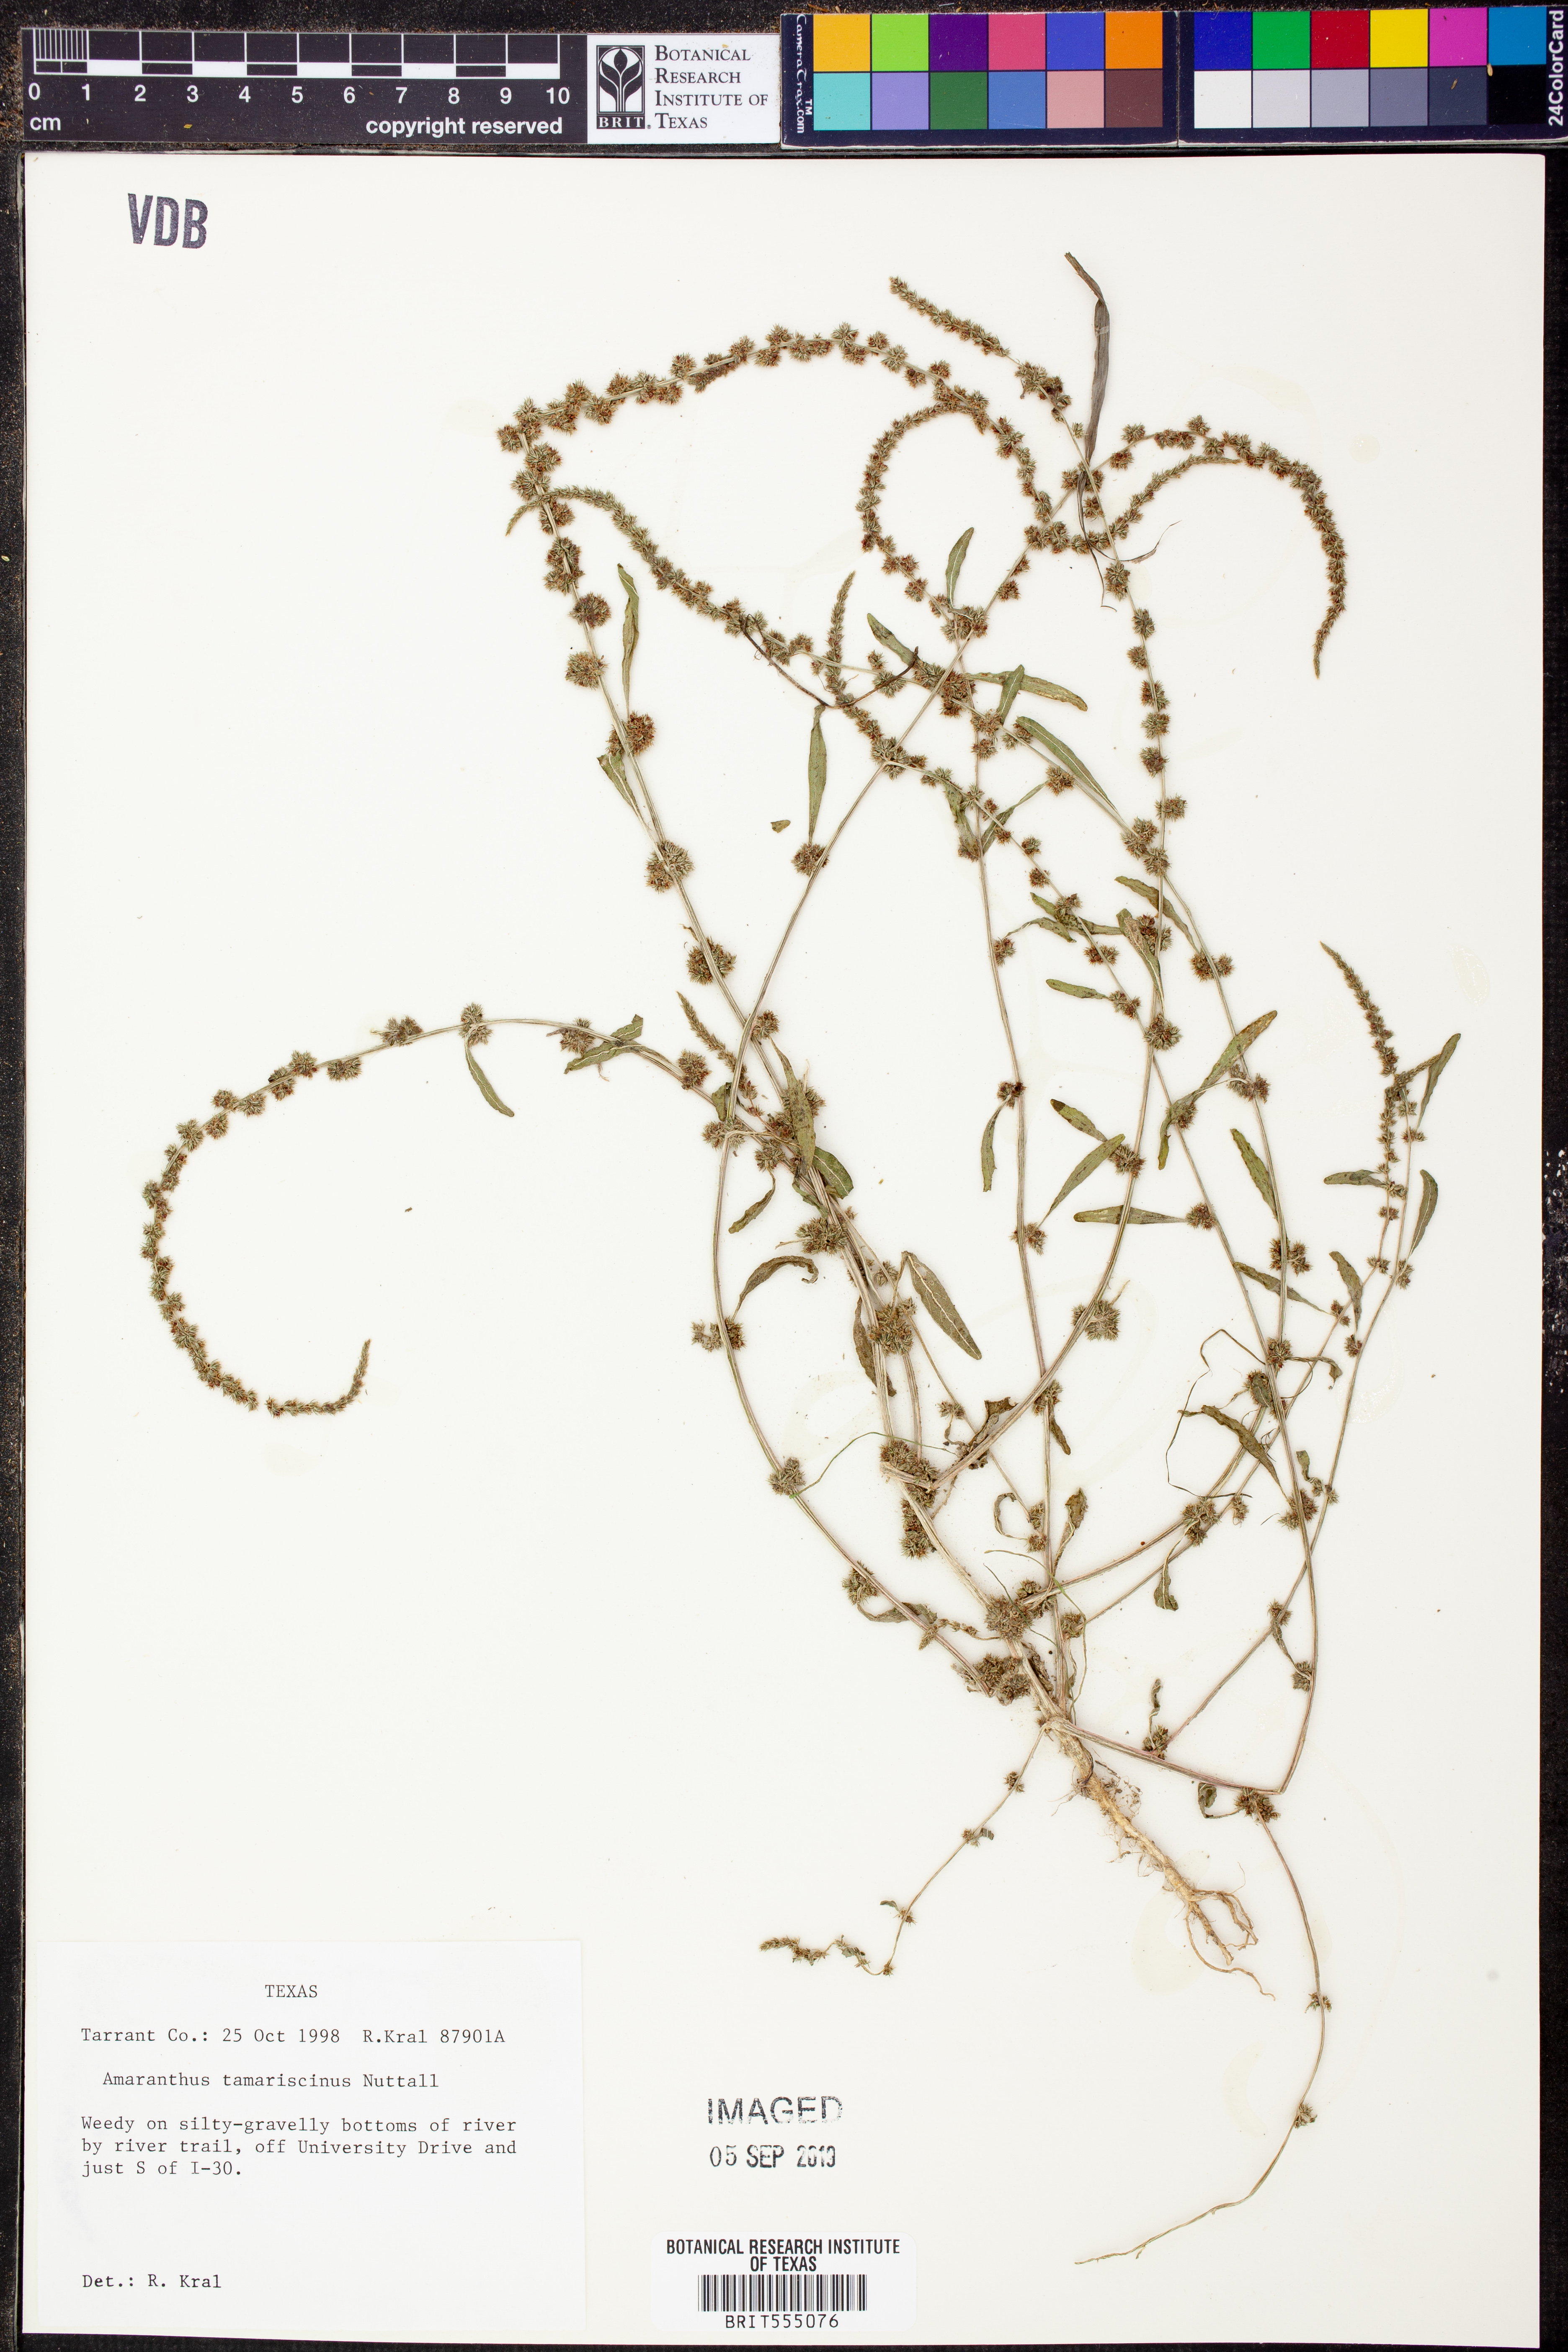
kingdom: Plantae
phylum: Tracheophyta
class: Magnoliopsida
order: Caryophyllales
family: Amaranthaceae
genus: Amaranthus
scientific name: Amaranthus tamariscinus
